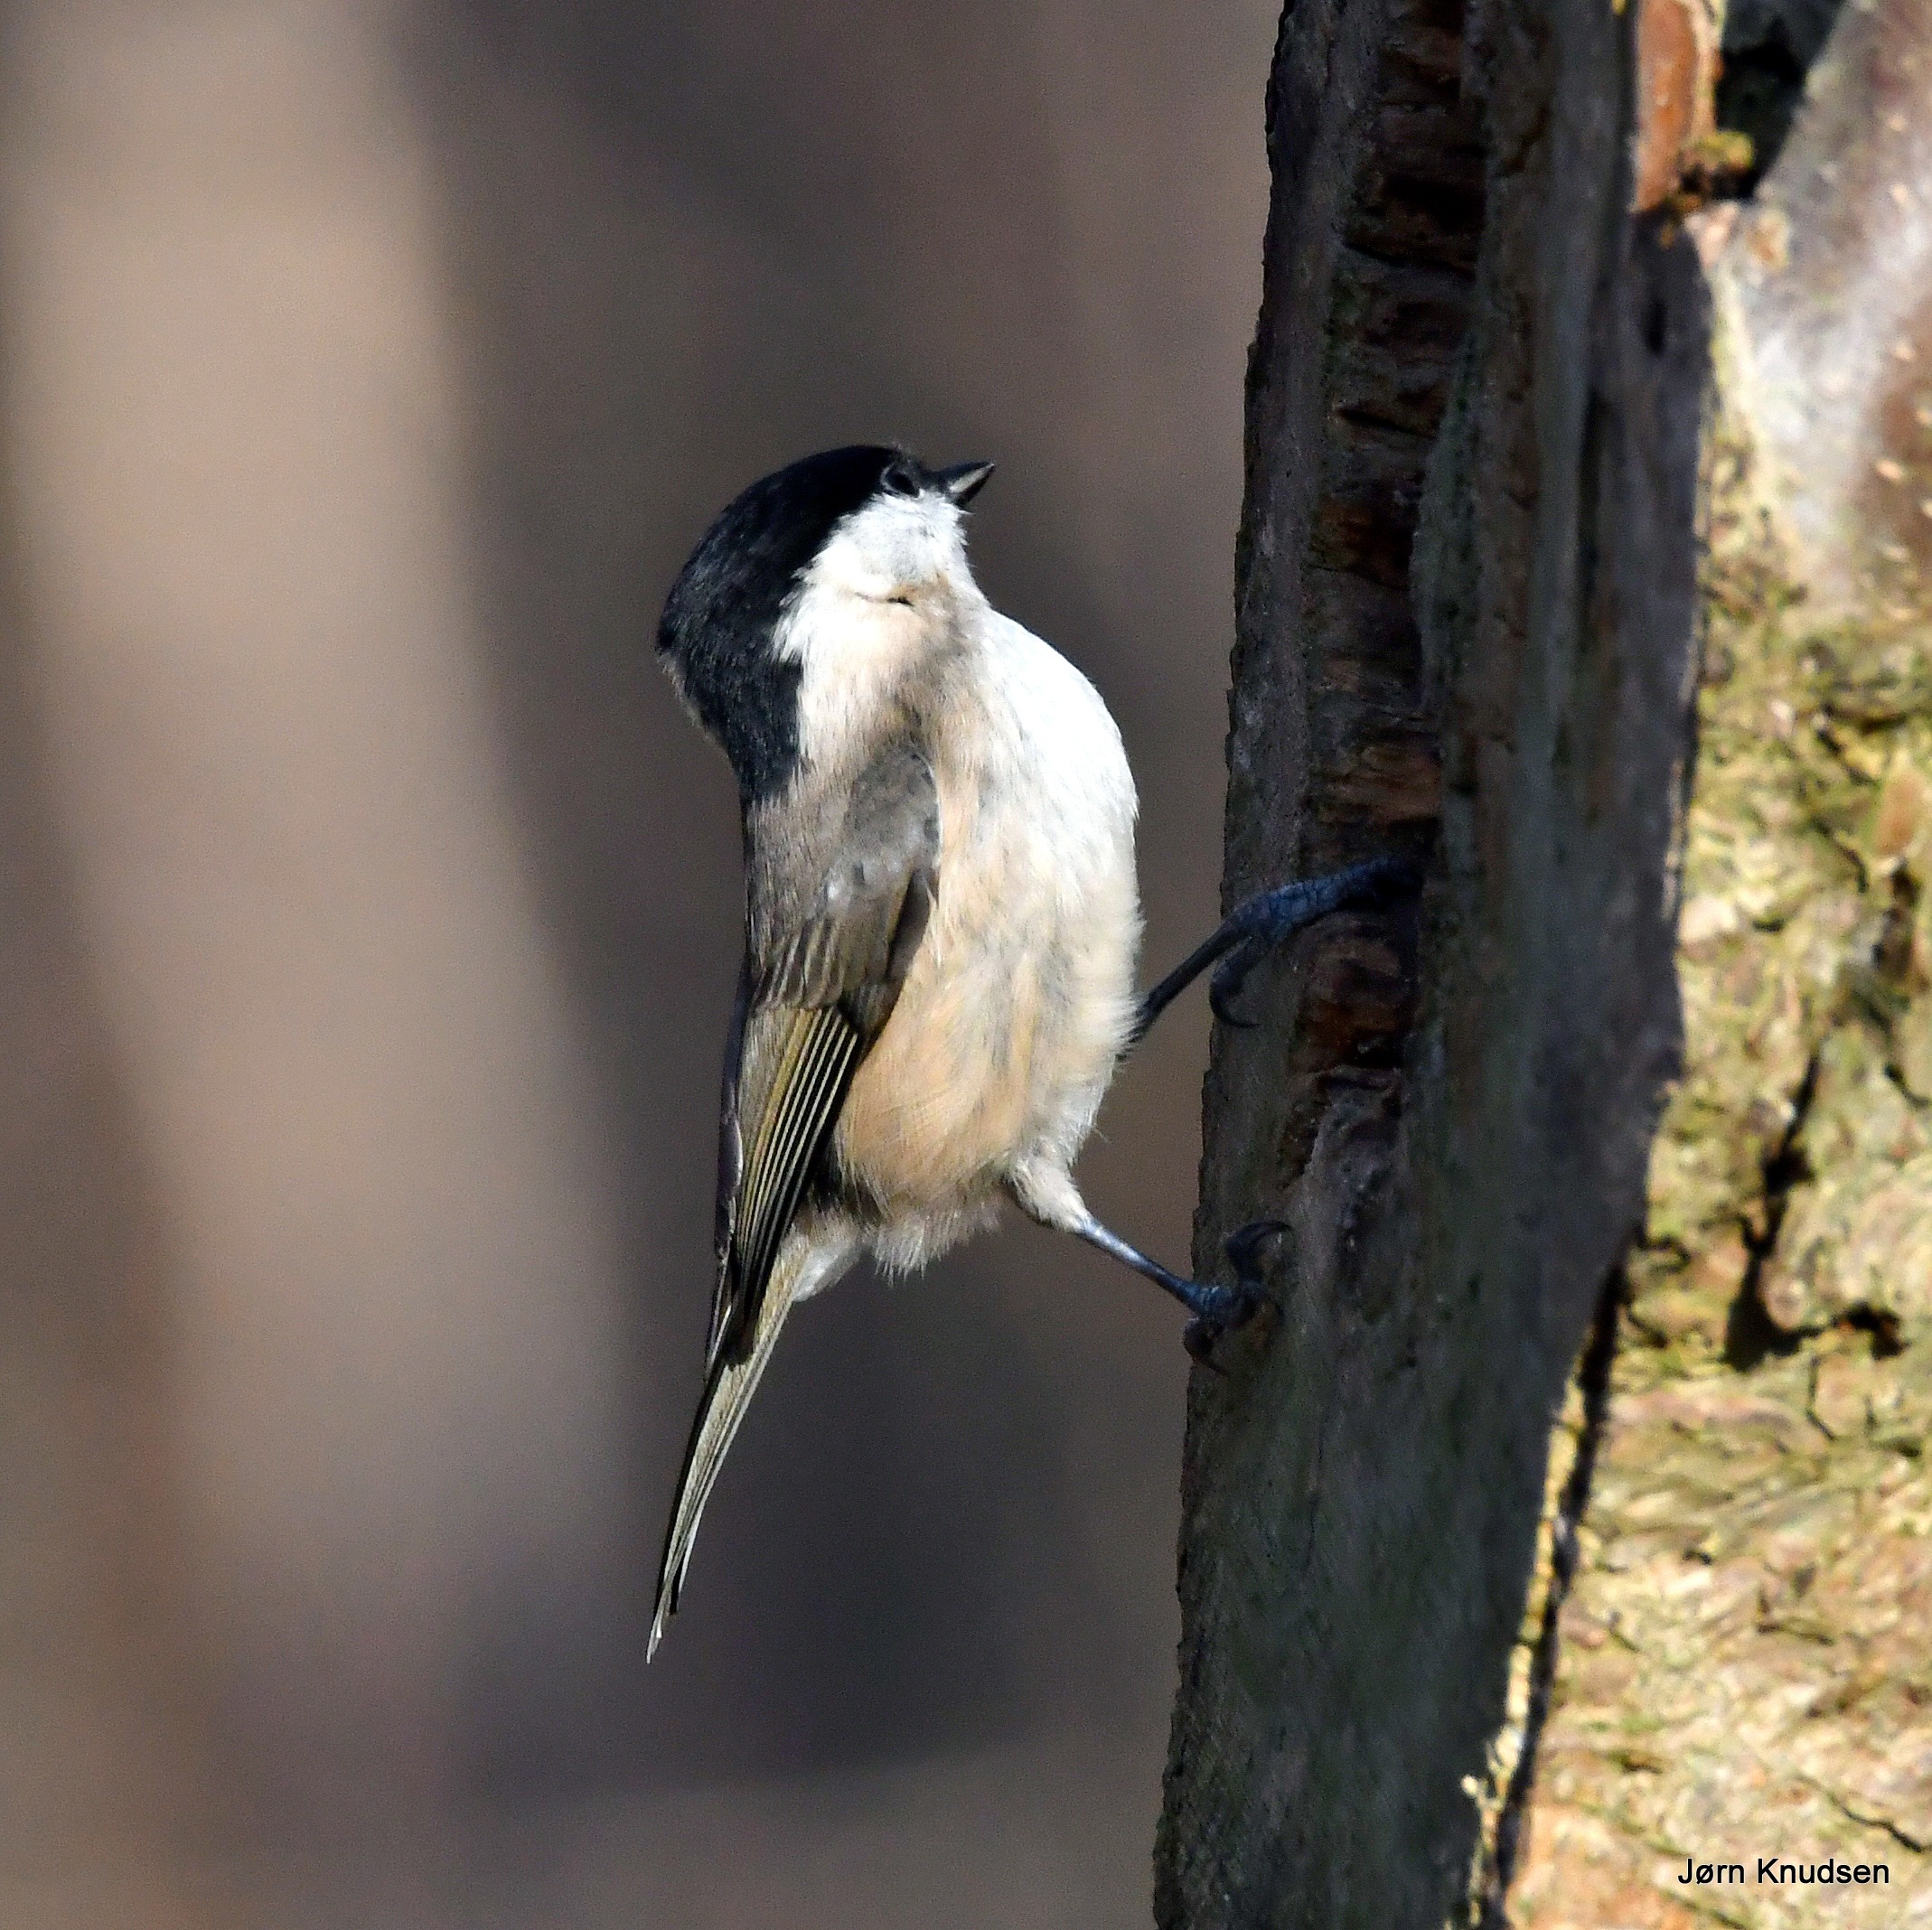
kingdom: Animalia
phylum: Chordata
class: Aves
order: Passeriformes
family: Paridae
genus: Poecile
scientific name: Poecile palustris
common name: Sumpmejse
